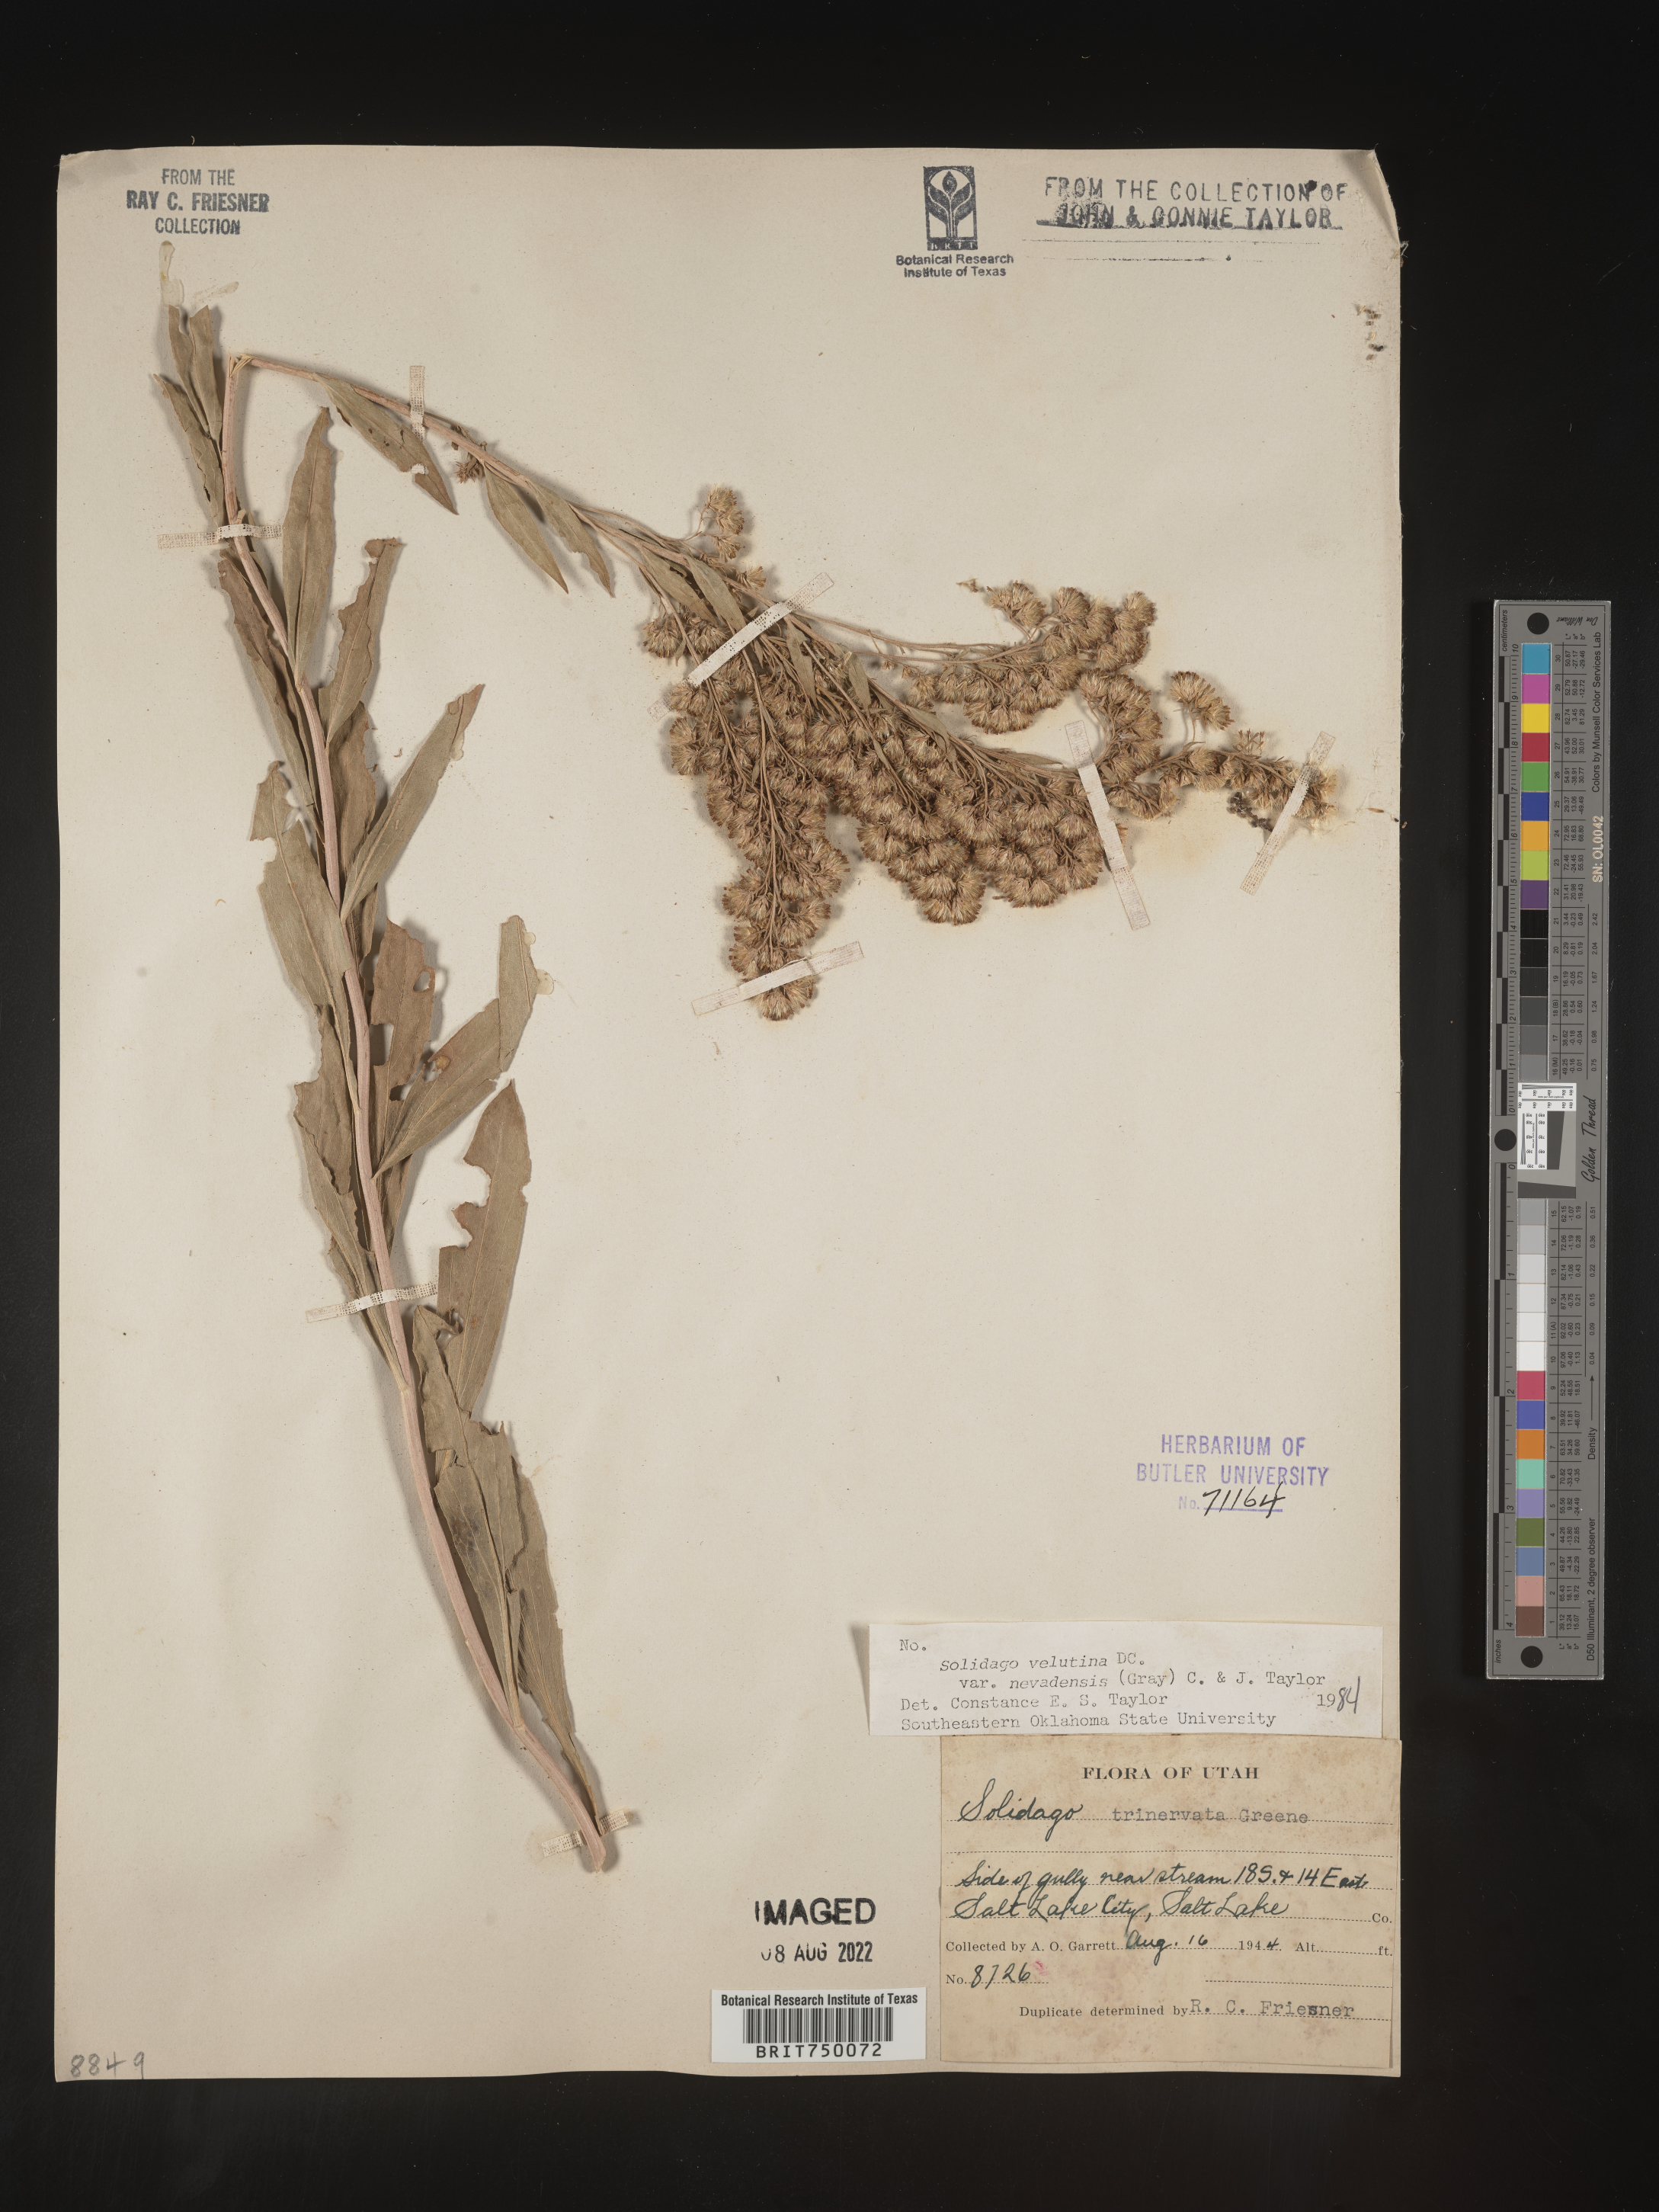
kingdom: Plantae
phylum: Tracheophyta
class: Magnoliopsida
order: Asterales
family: Asteraceae
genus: Solidago
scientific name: Solidago garrettii
